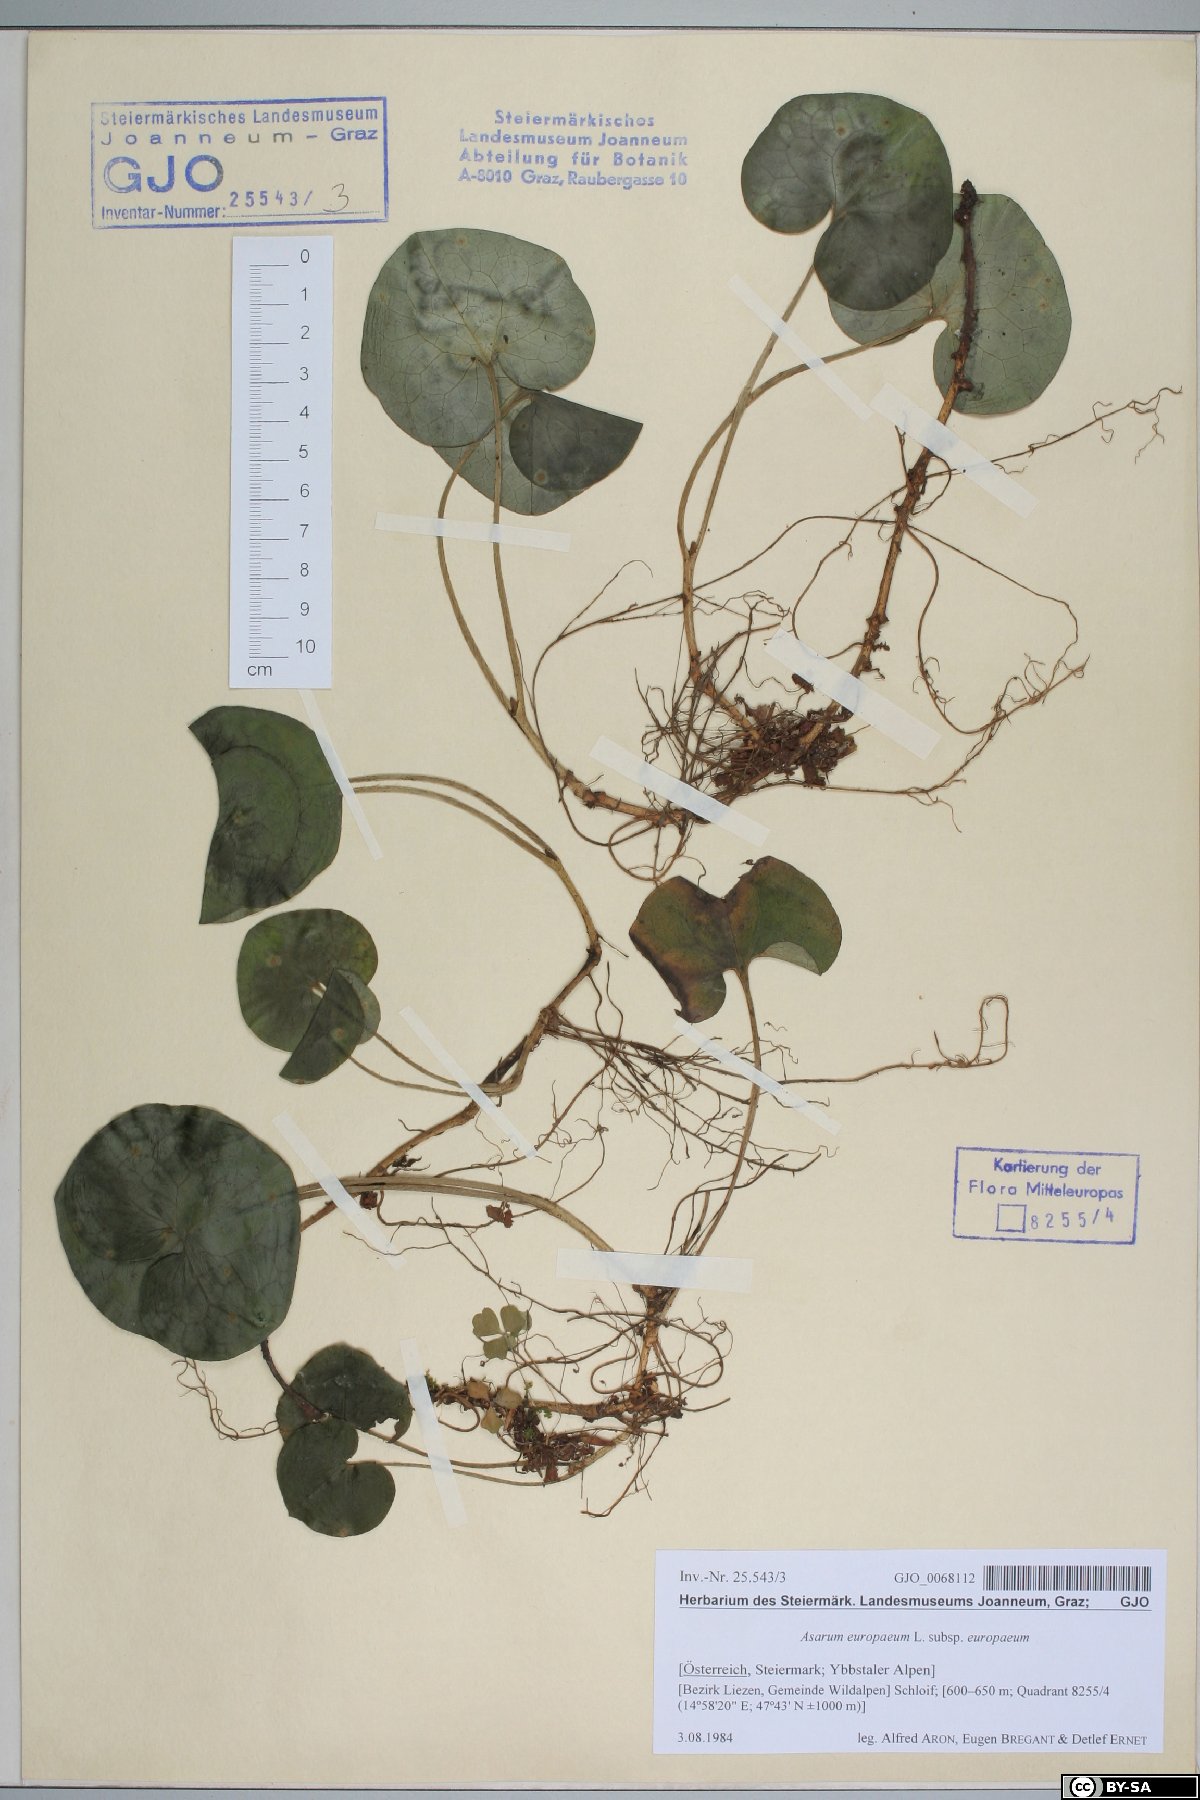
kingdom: Plantae
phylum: Tracheophyta
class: Magnoliopsida
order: Piperales
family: Aristolochiaceae
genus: Asarum
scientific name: Asarum europaeum
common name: Asarabacca
